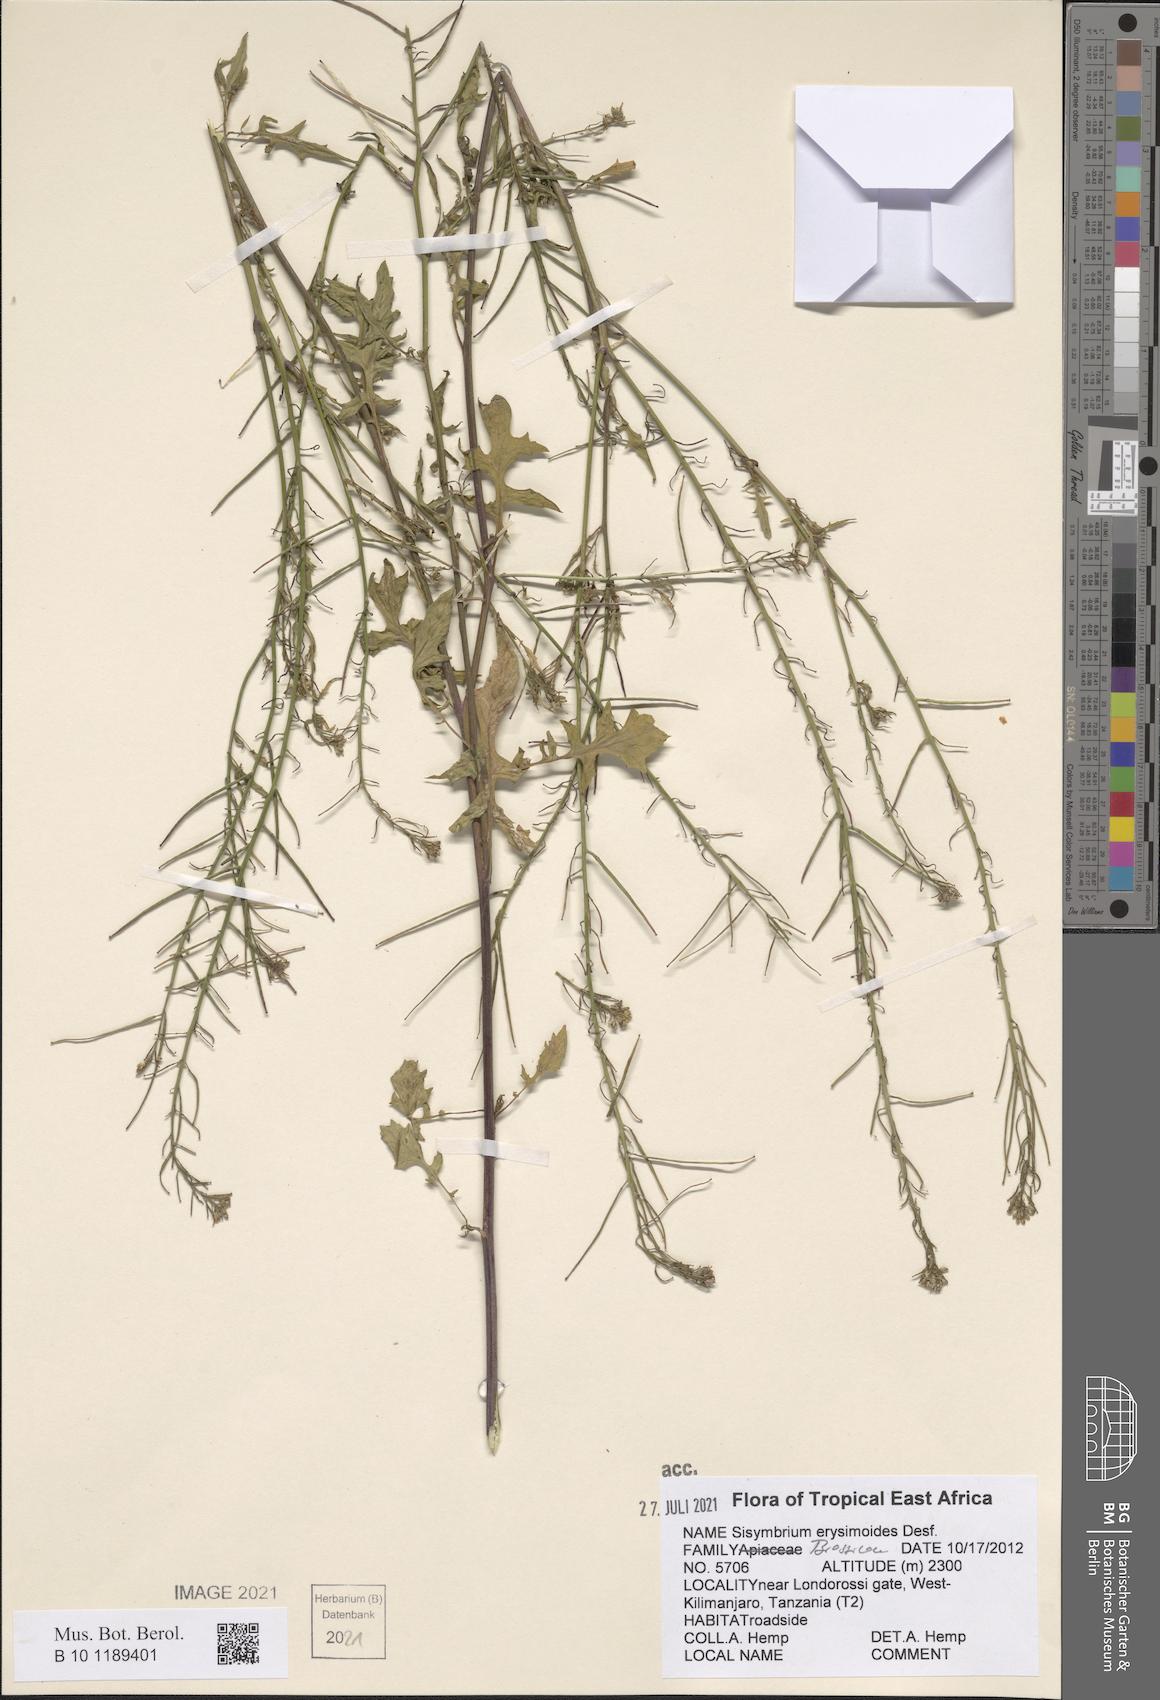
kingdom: Plantae
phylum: Tracheophyta
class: Magnoliopsida
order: Brassicales
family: Brassicaceae
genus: Sisymbrium
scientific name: Sisymbrium erysimoides
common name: French rocket
